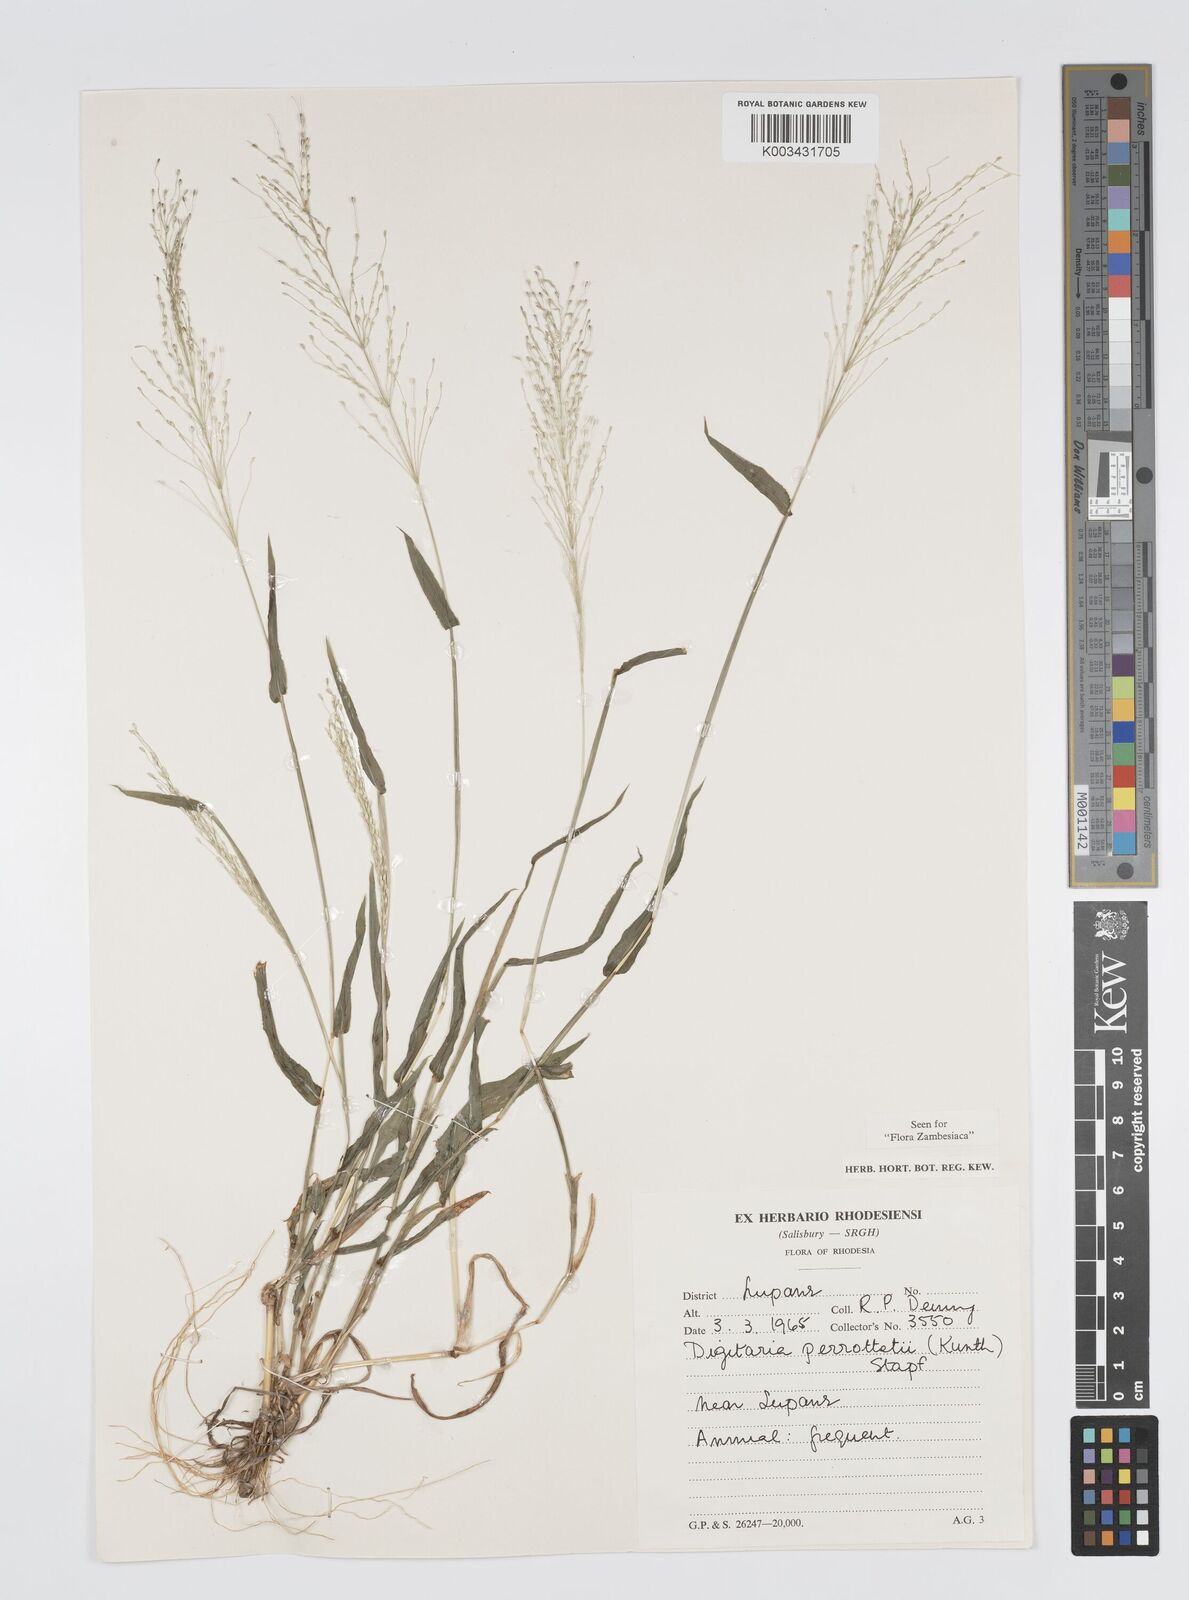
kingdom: Plantae
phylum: Tracheophyta
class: Liliopsida
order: Poales
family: Poaceae
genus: Digitaria
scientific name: Digitaria perrottetii
